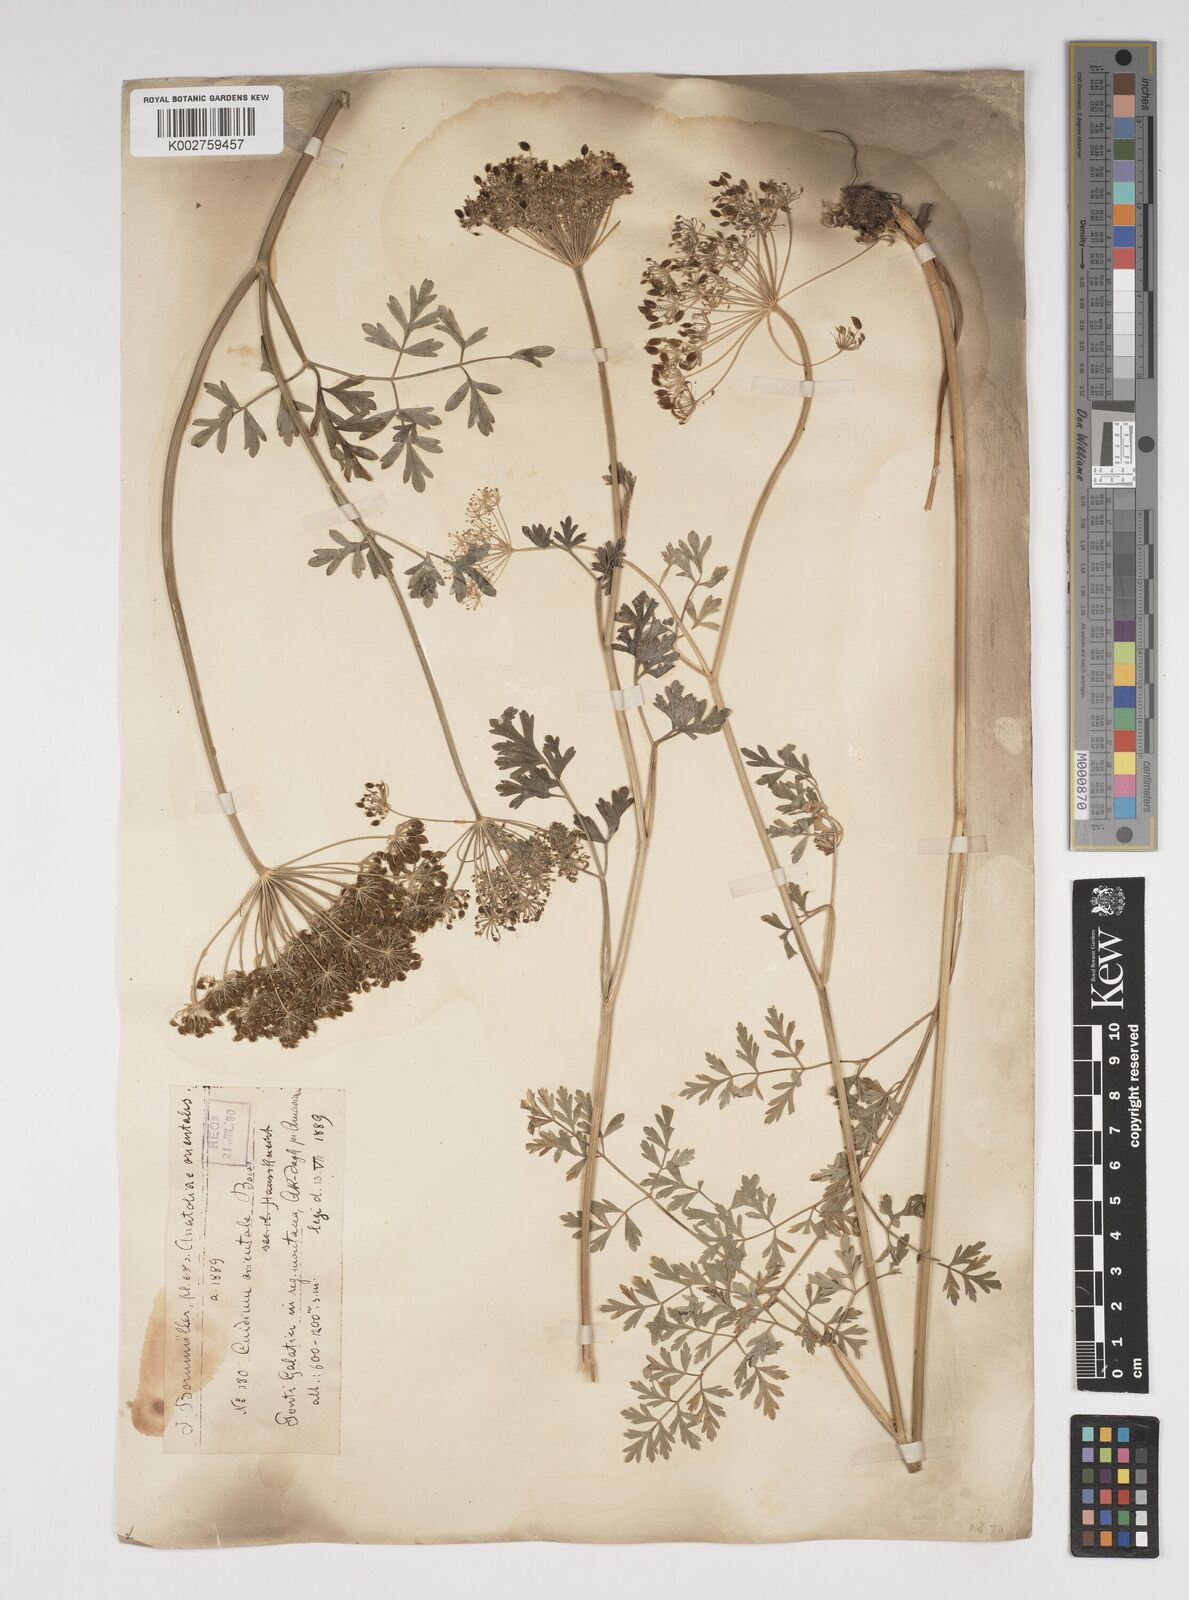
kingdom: Plantae
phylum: Tracheophyta
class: Magnoliopsida
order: Apiales
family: Apiaceae
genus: Katapsuxis
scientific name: Katapsuxis silaifolia
